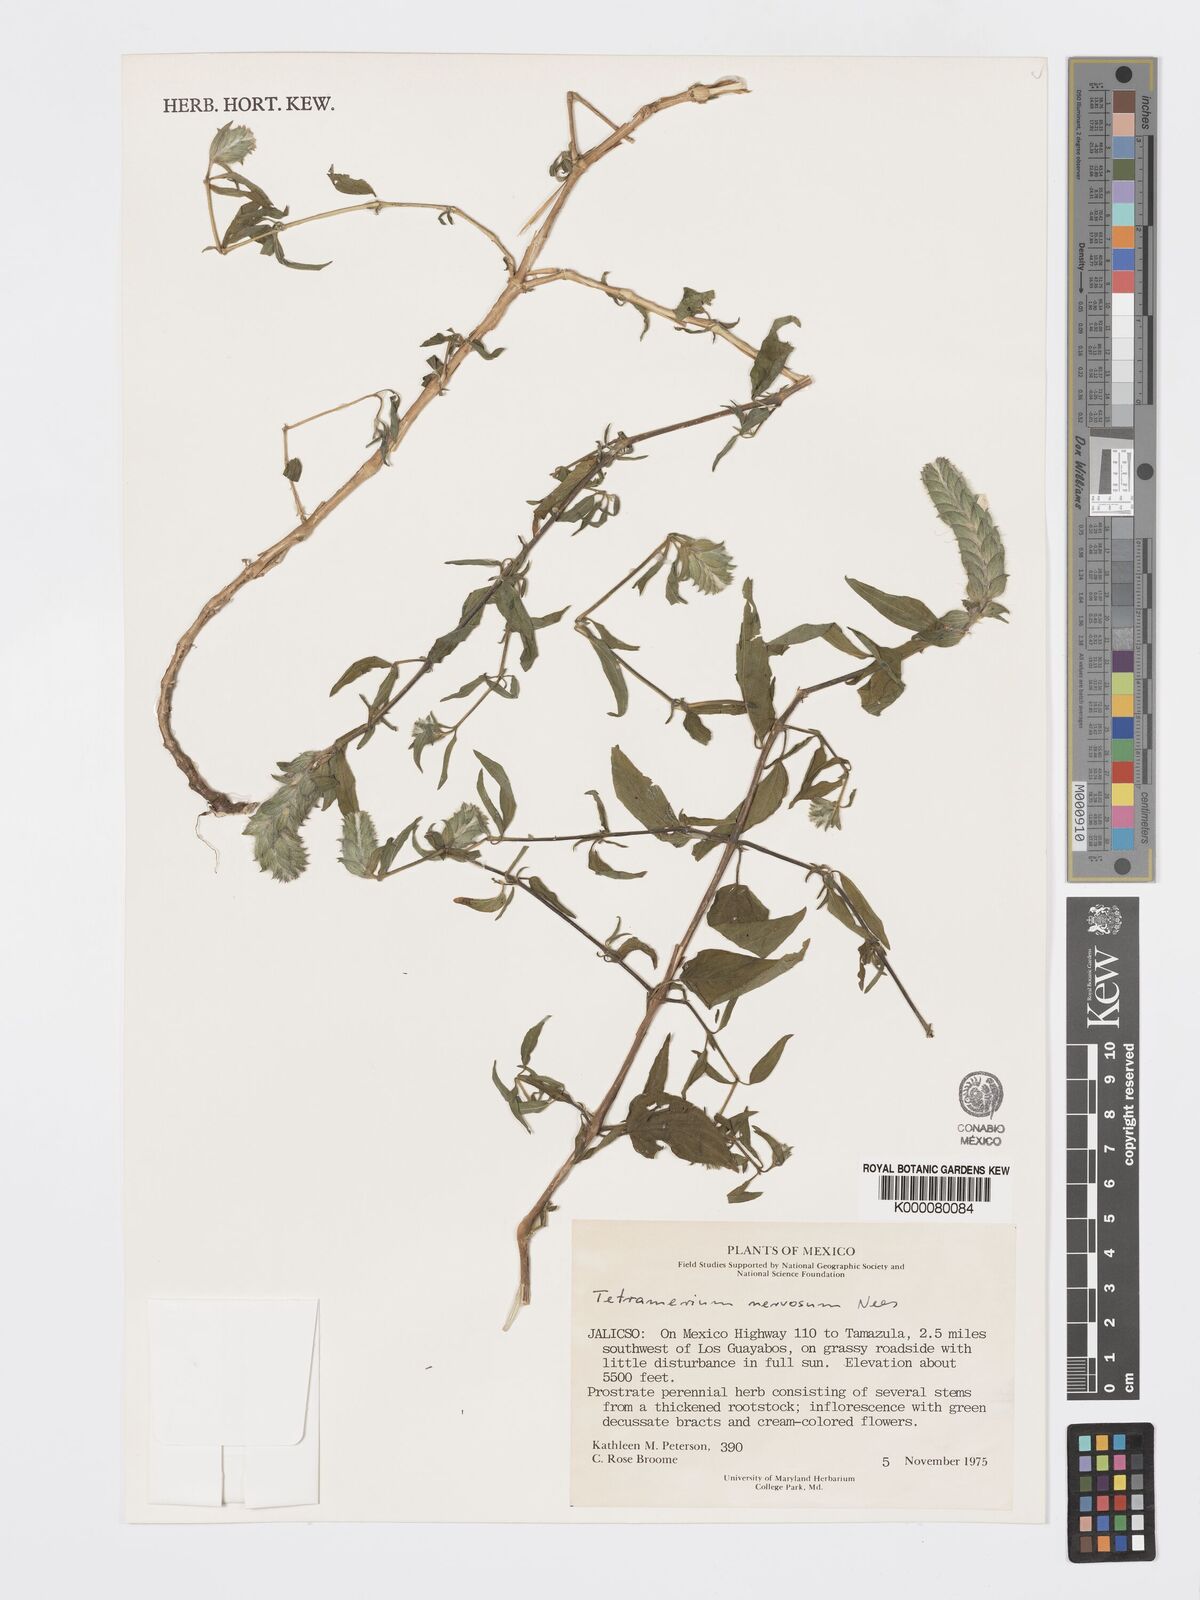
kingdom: Plantae
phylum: Tracheophyta
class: Magnoliopsida
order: Lamiales
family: Acanthaceae
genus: Tetramerium
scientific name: Tetramerium nervosum
